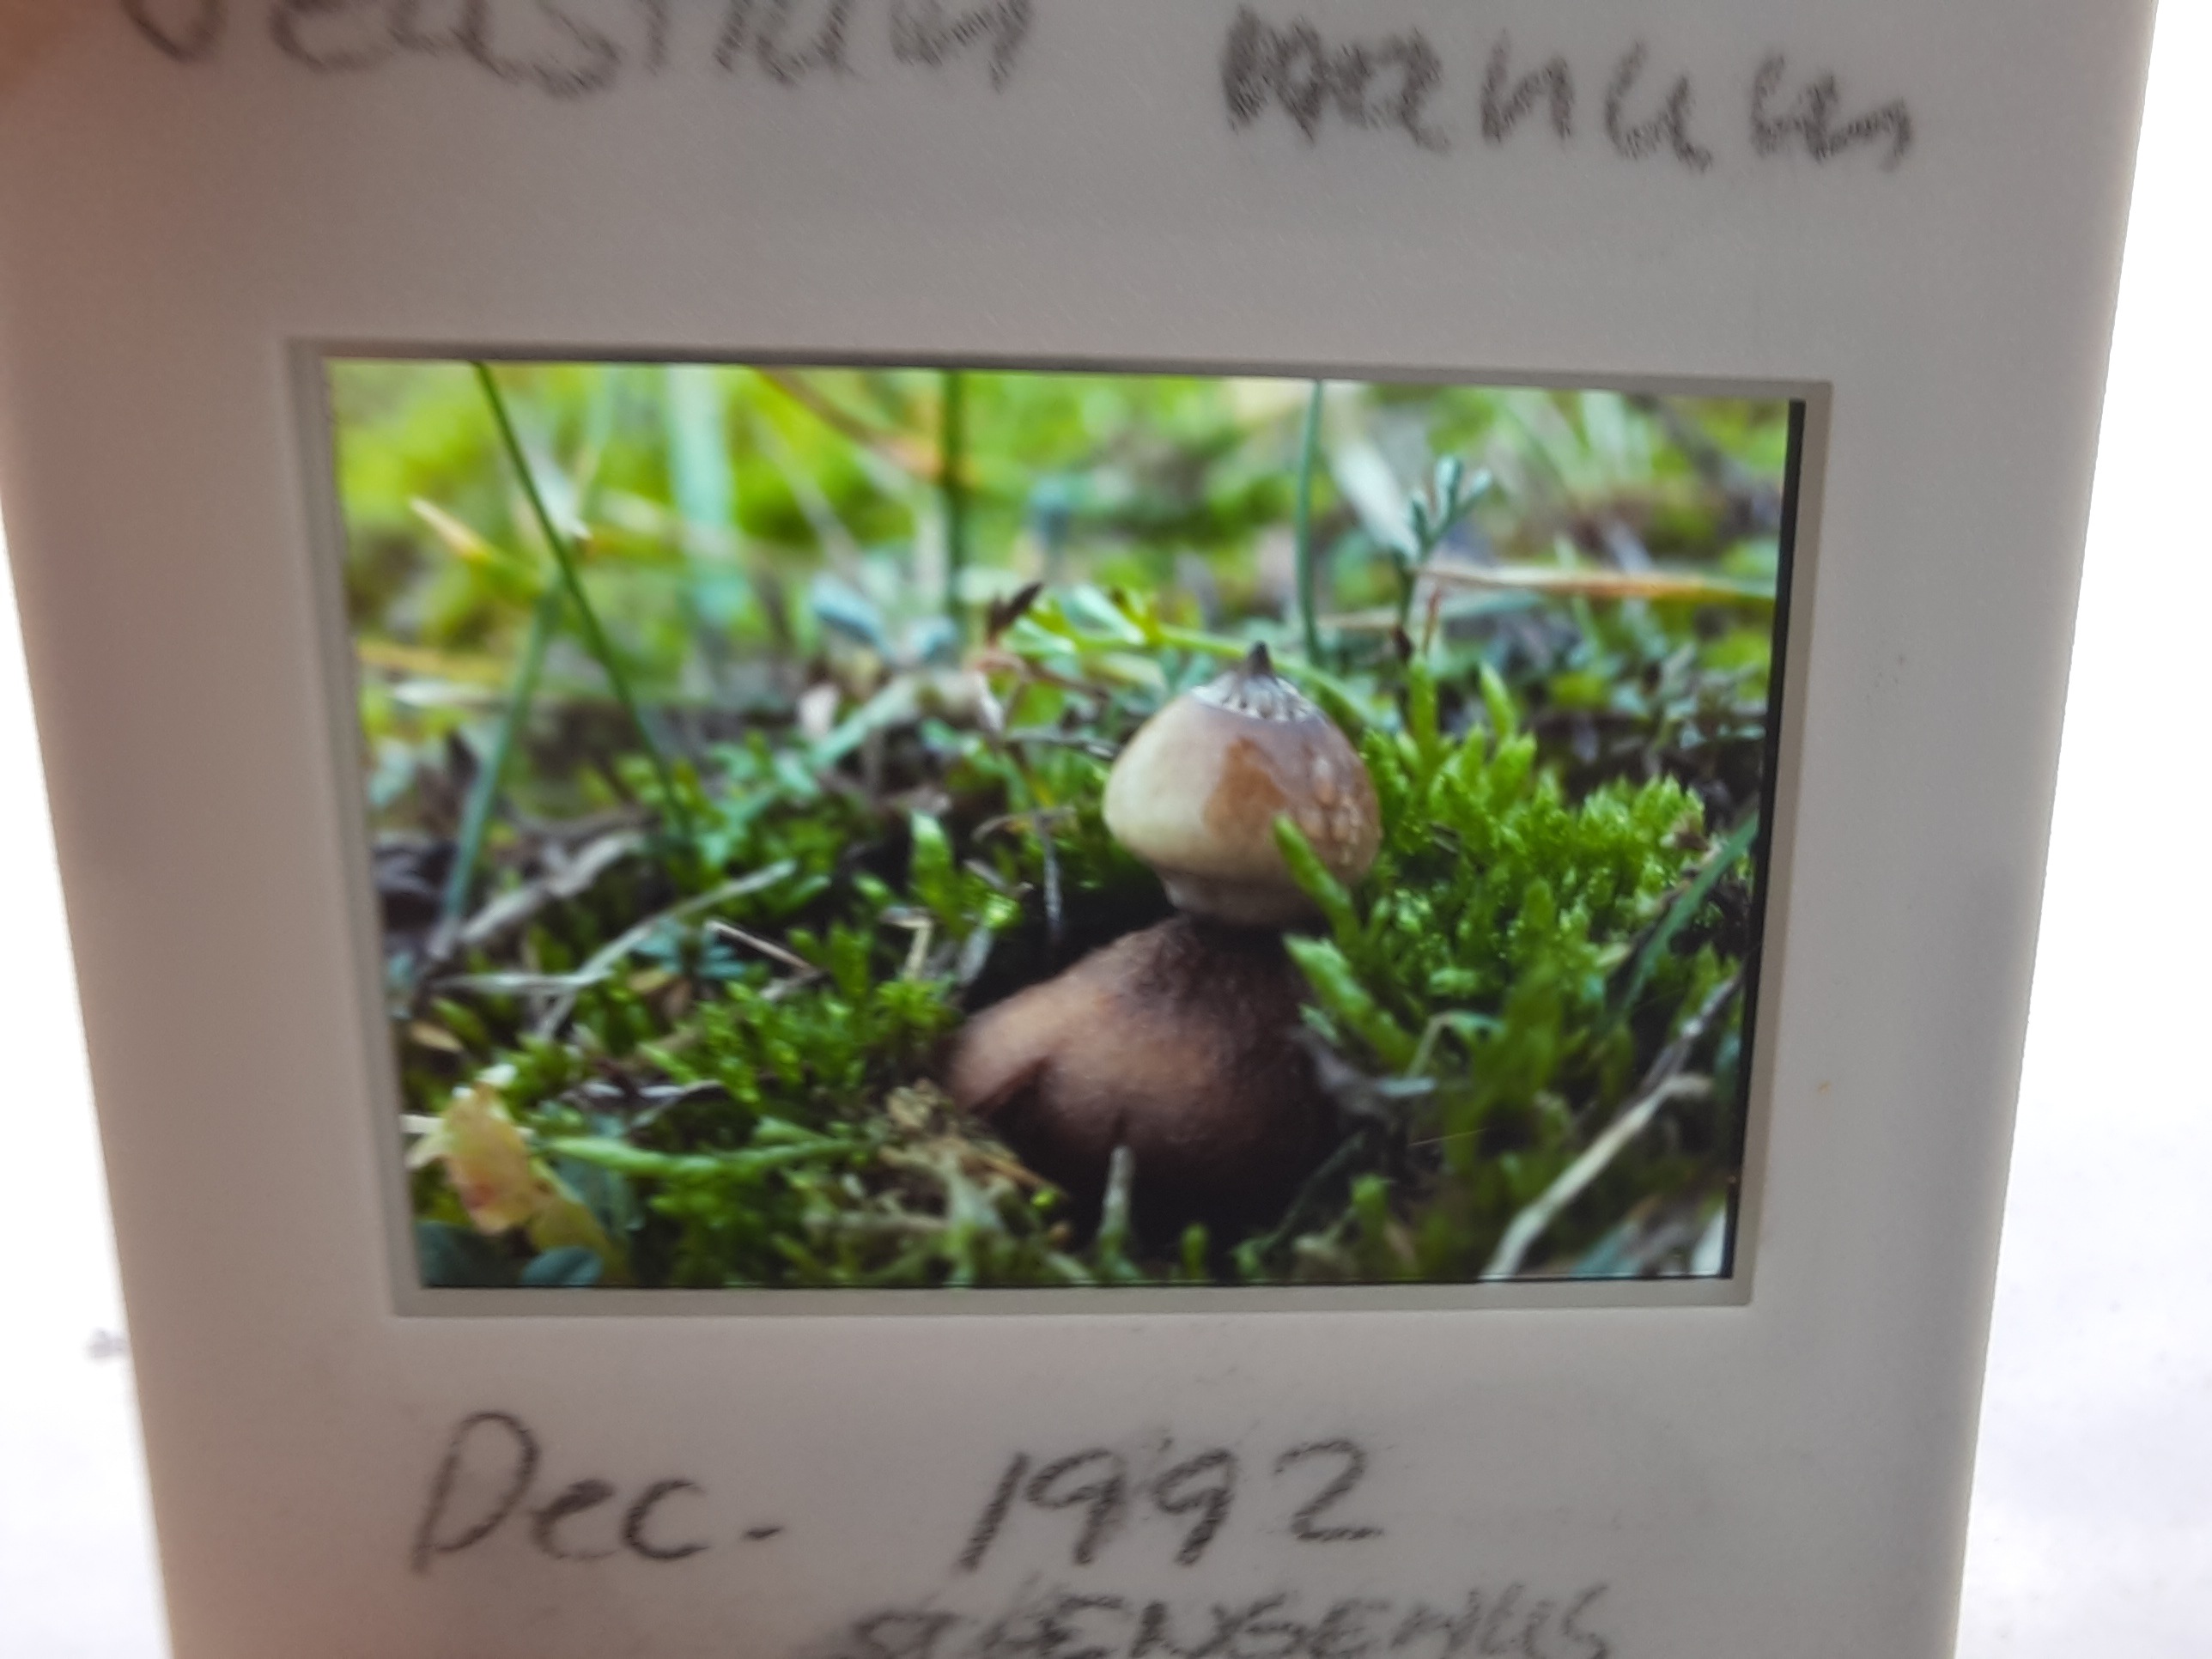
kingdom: Fungi
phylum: Basidiomycota
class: Agaricomycetes
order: Geastrales
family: Geastraceae
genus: Geastrum
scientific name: Geastrum striatum
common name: dværg-stjernebold
